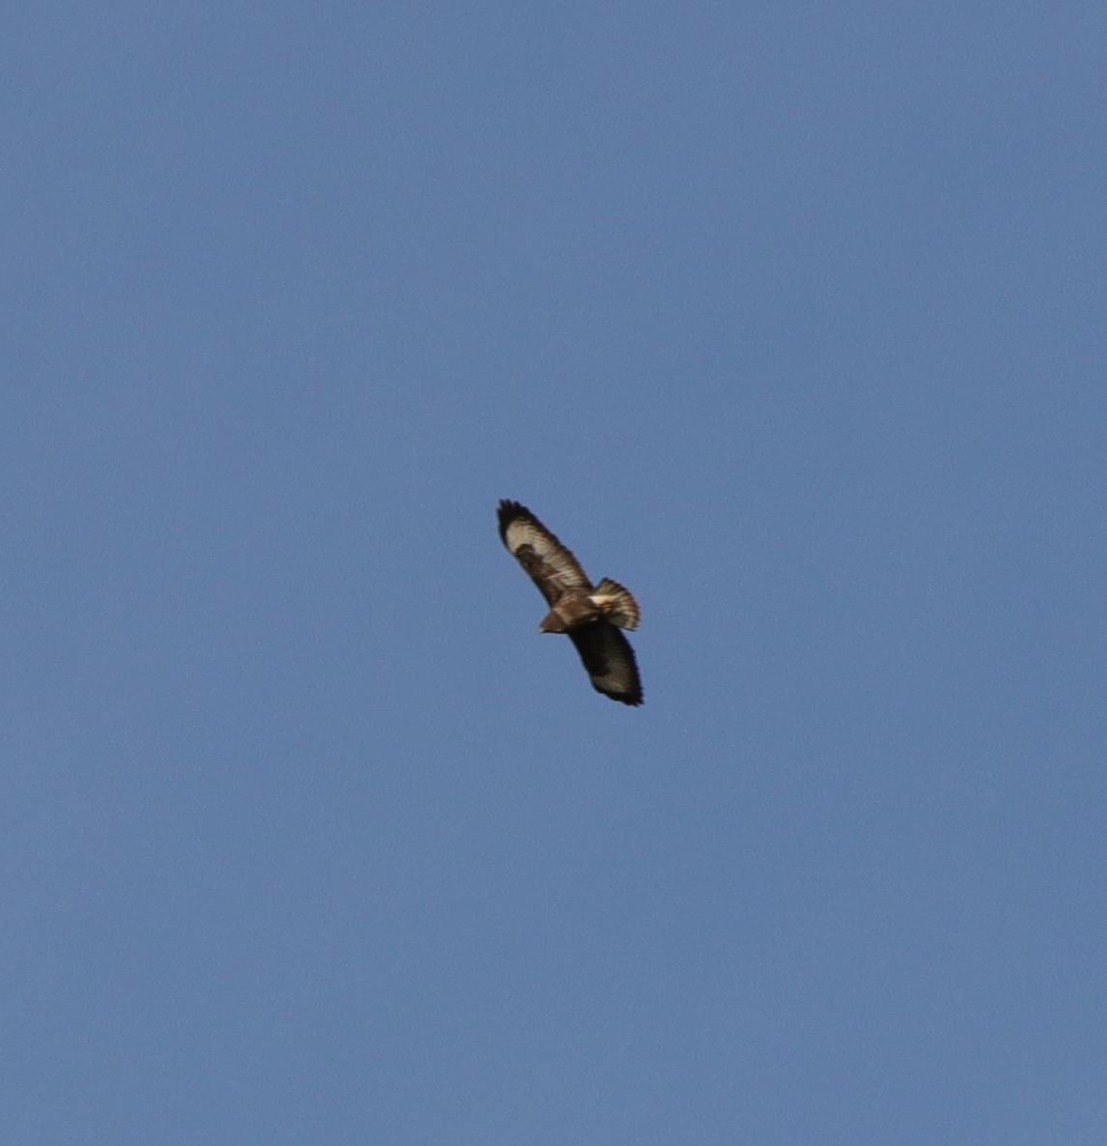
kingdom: Animalia
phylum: Chordata
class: Aves
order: Accipitriformes
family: Accipitridae
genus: Buteo
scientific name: Buteo buteo
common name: Musvåge
